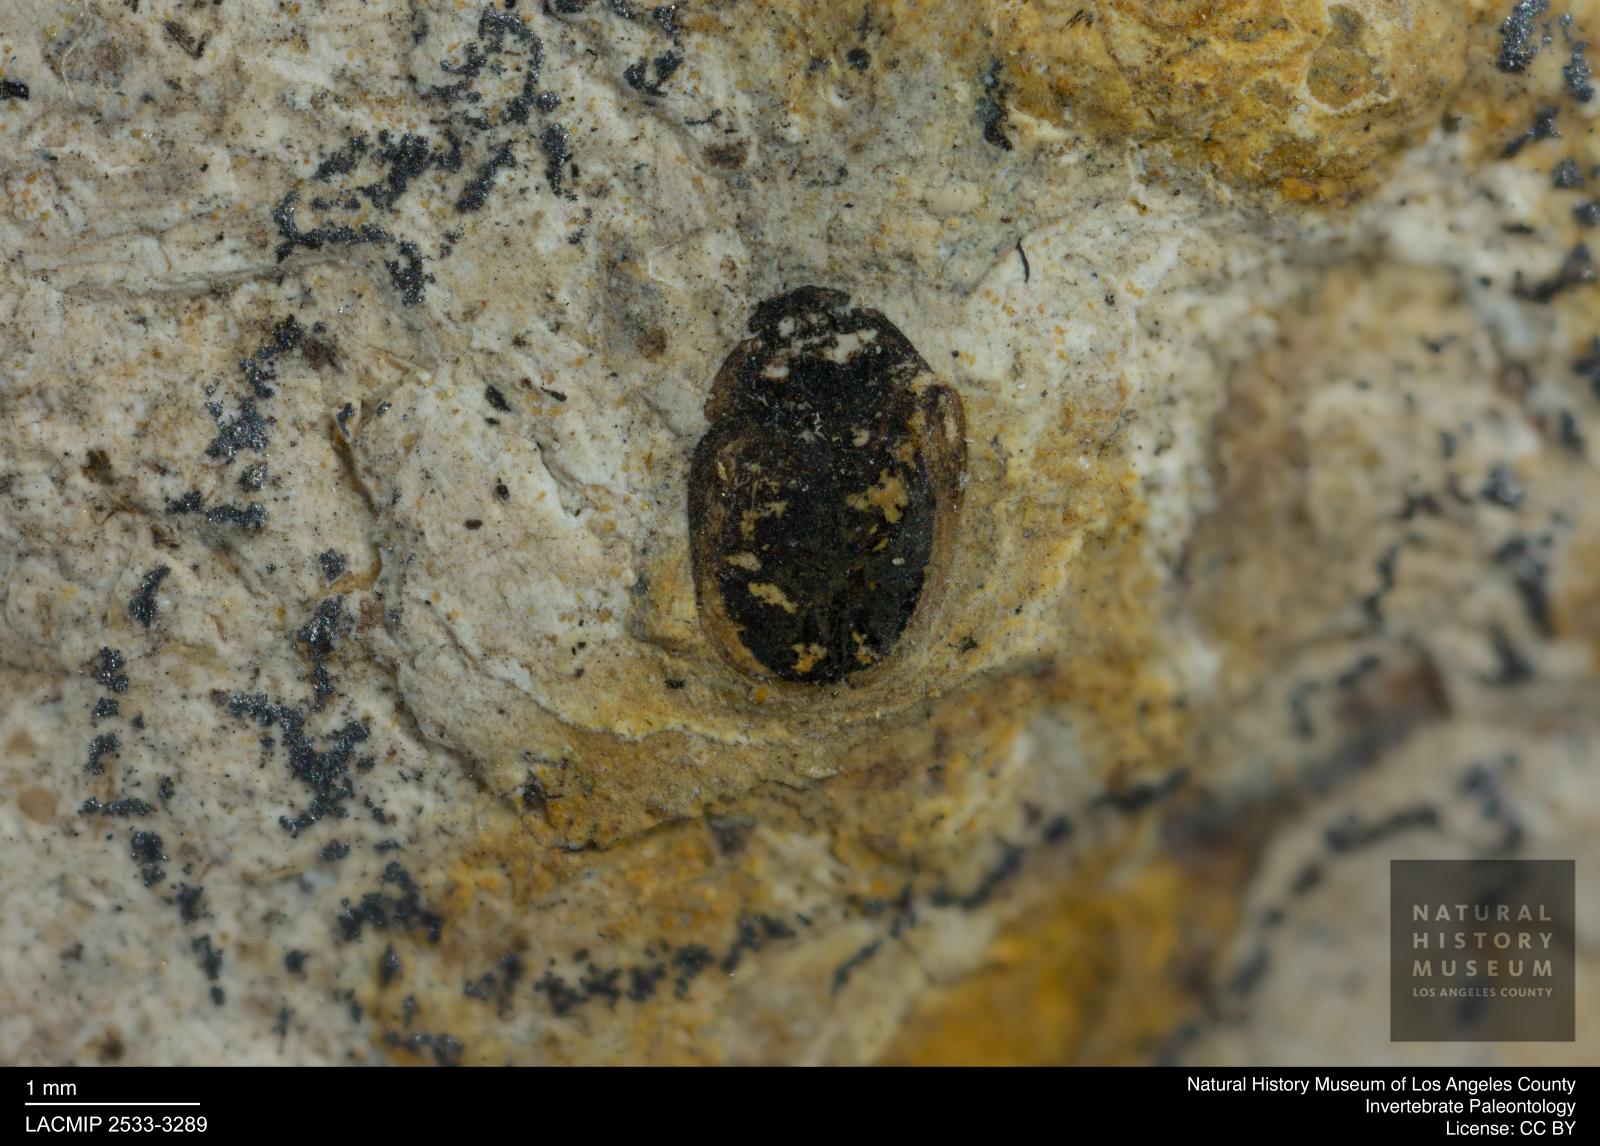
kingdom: Animalia
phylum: Arthropoda
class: Insecta
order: Coleoptera
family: Hydrophilidae
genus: Paracymus
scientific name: Paracymus excitatus
